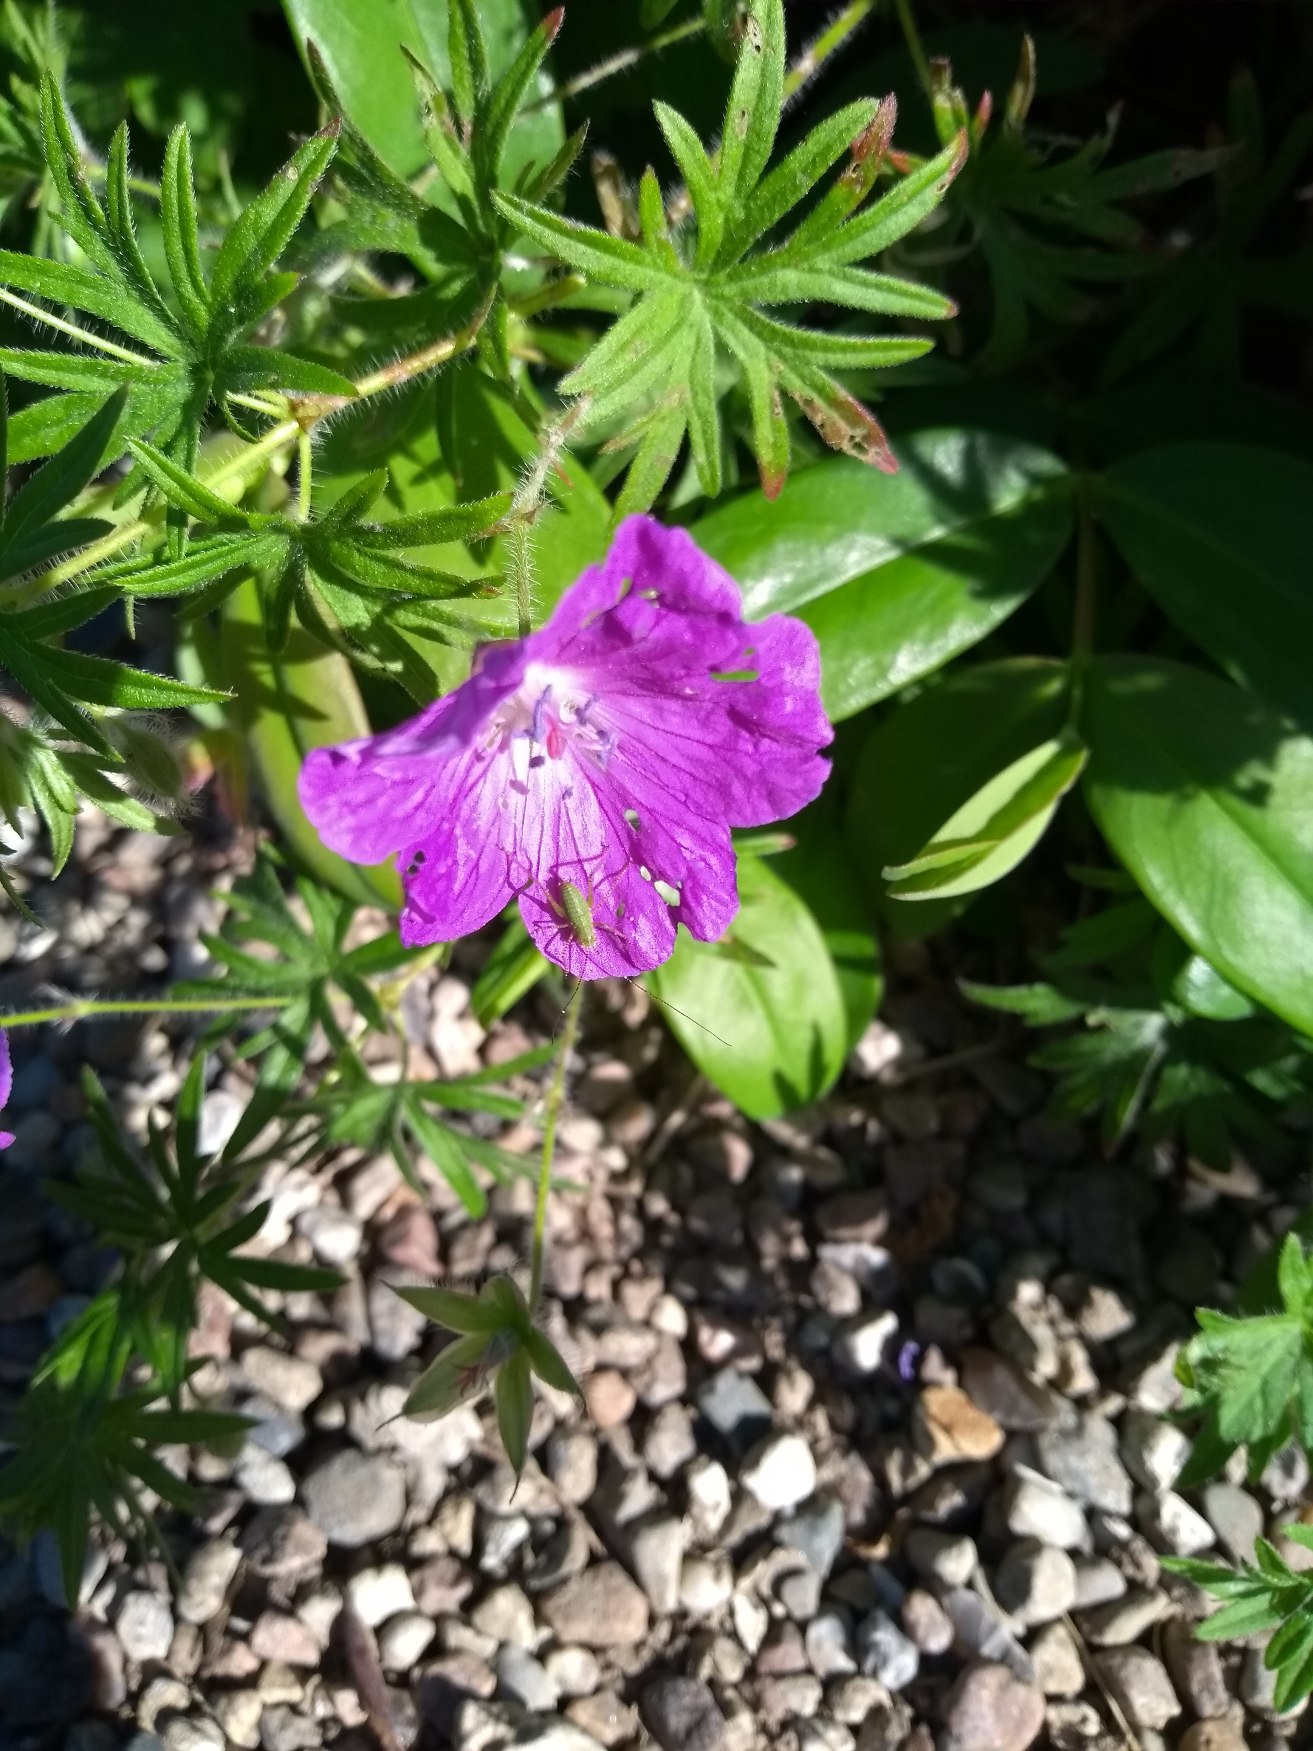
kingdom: Plantae
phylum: Tracheophyta
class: Magnoliopsida
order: Geraniales
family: Geraniaceae
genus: Geranium
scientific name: Geranium sanguineum
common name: Blodrød storkenæb
